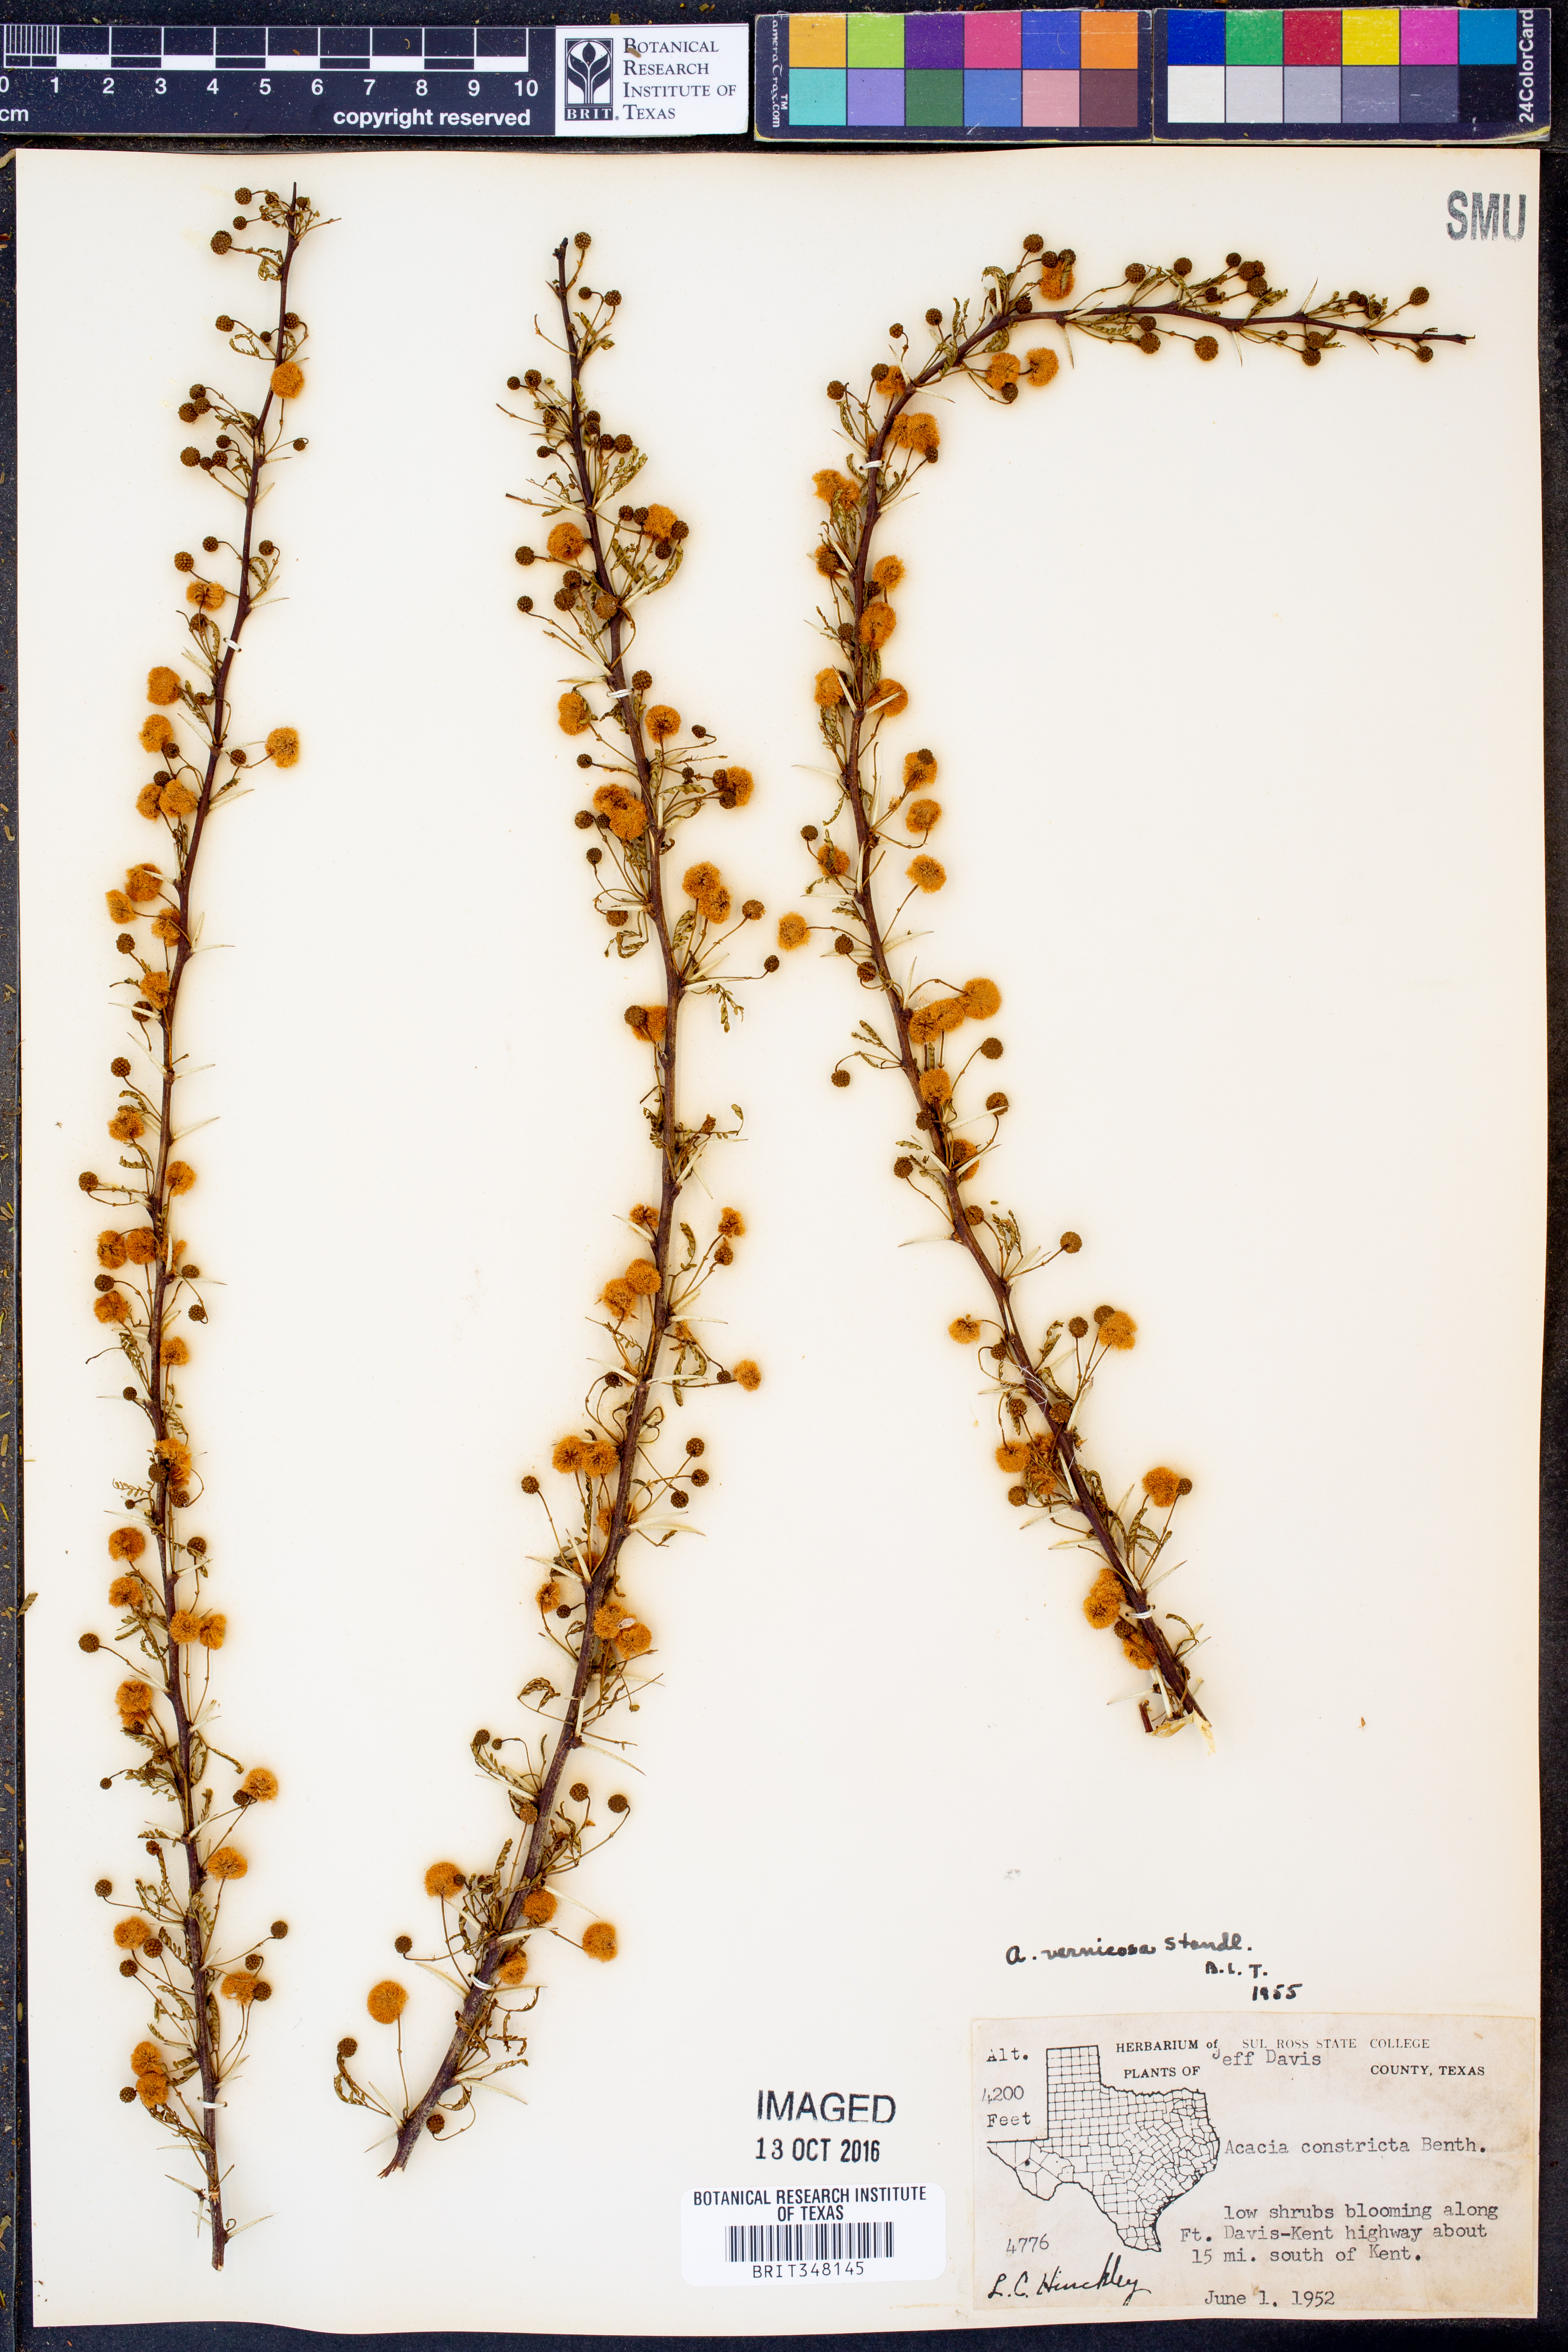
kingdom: Plantae
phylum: Tracheophyta
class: Magnoliopsida
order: Fabales
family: Fabaceae
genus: Vachellia
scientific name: Vachellia vernicosa
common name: Viscid acacia
